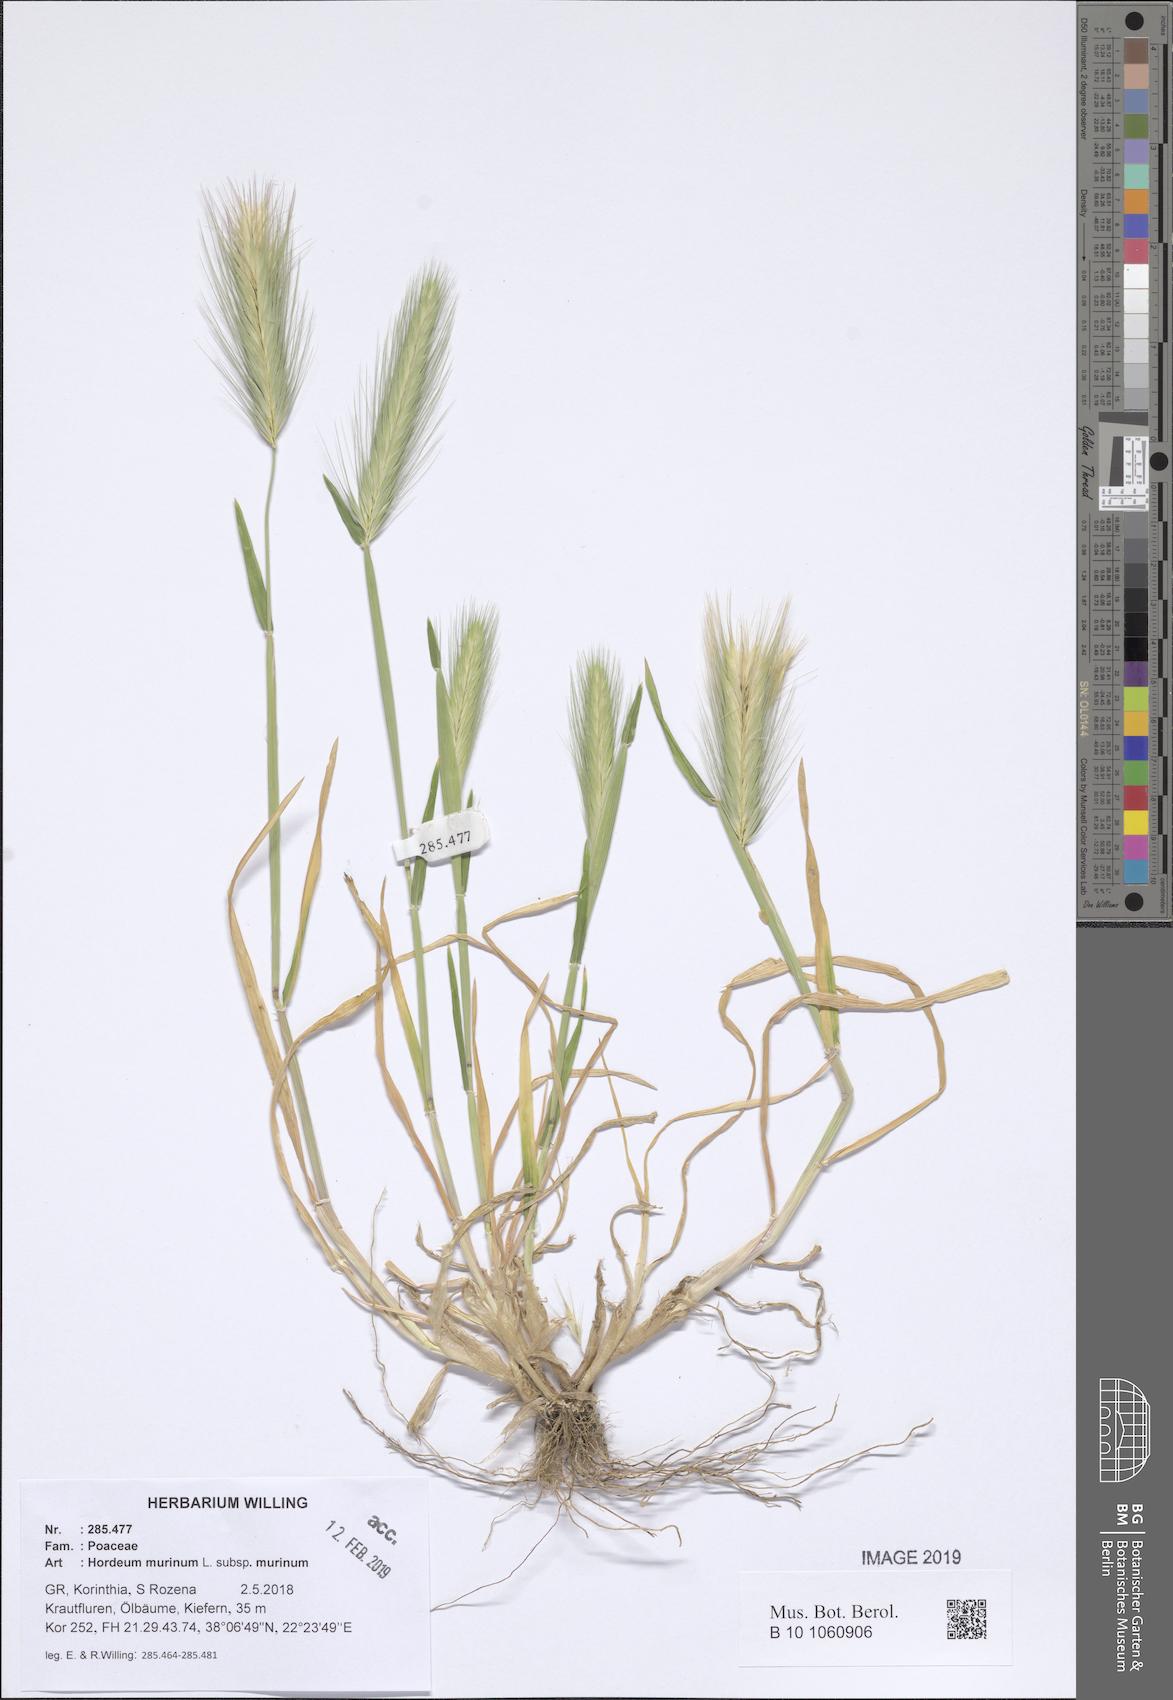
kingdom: Plantae
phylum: Tracheophyta
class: Liliopsida
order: Poales
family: Poaceae
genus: Hordeum
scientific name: Hordeum murinum
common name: Wall barley
